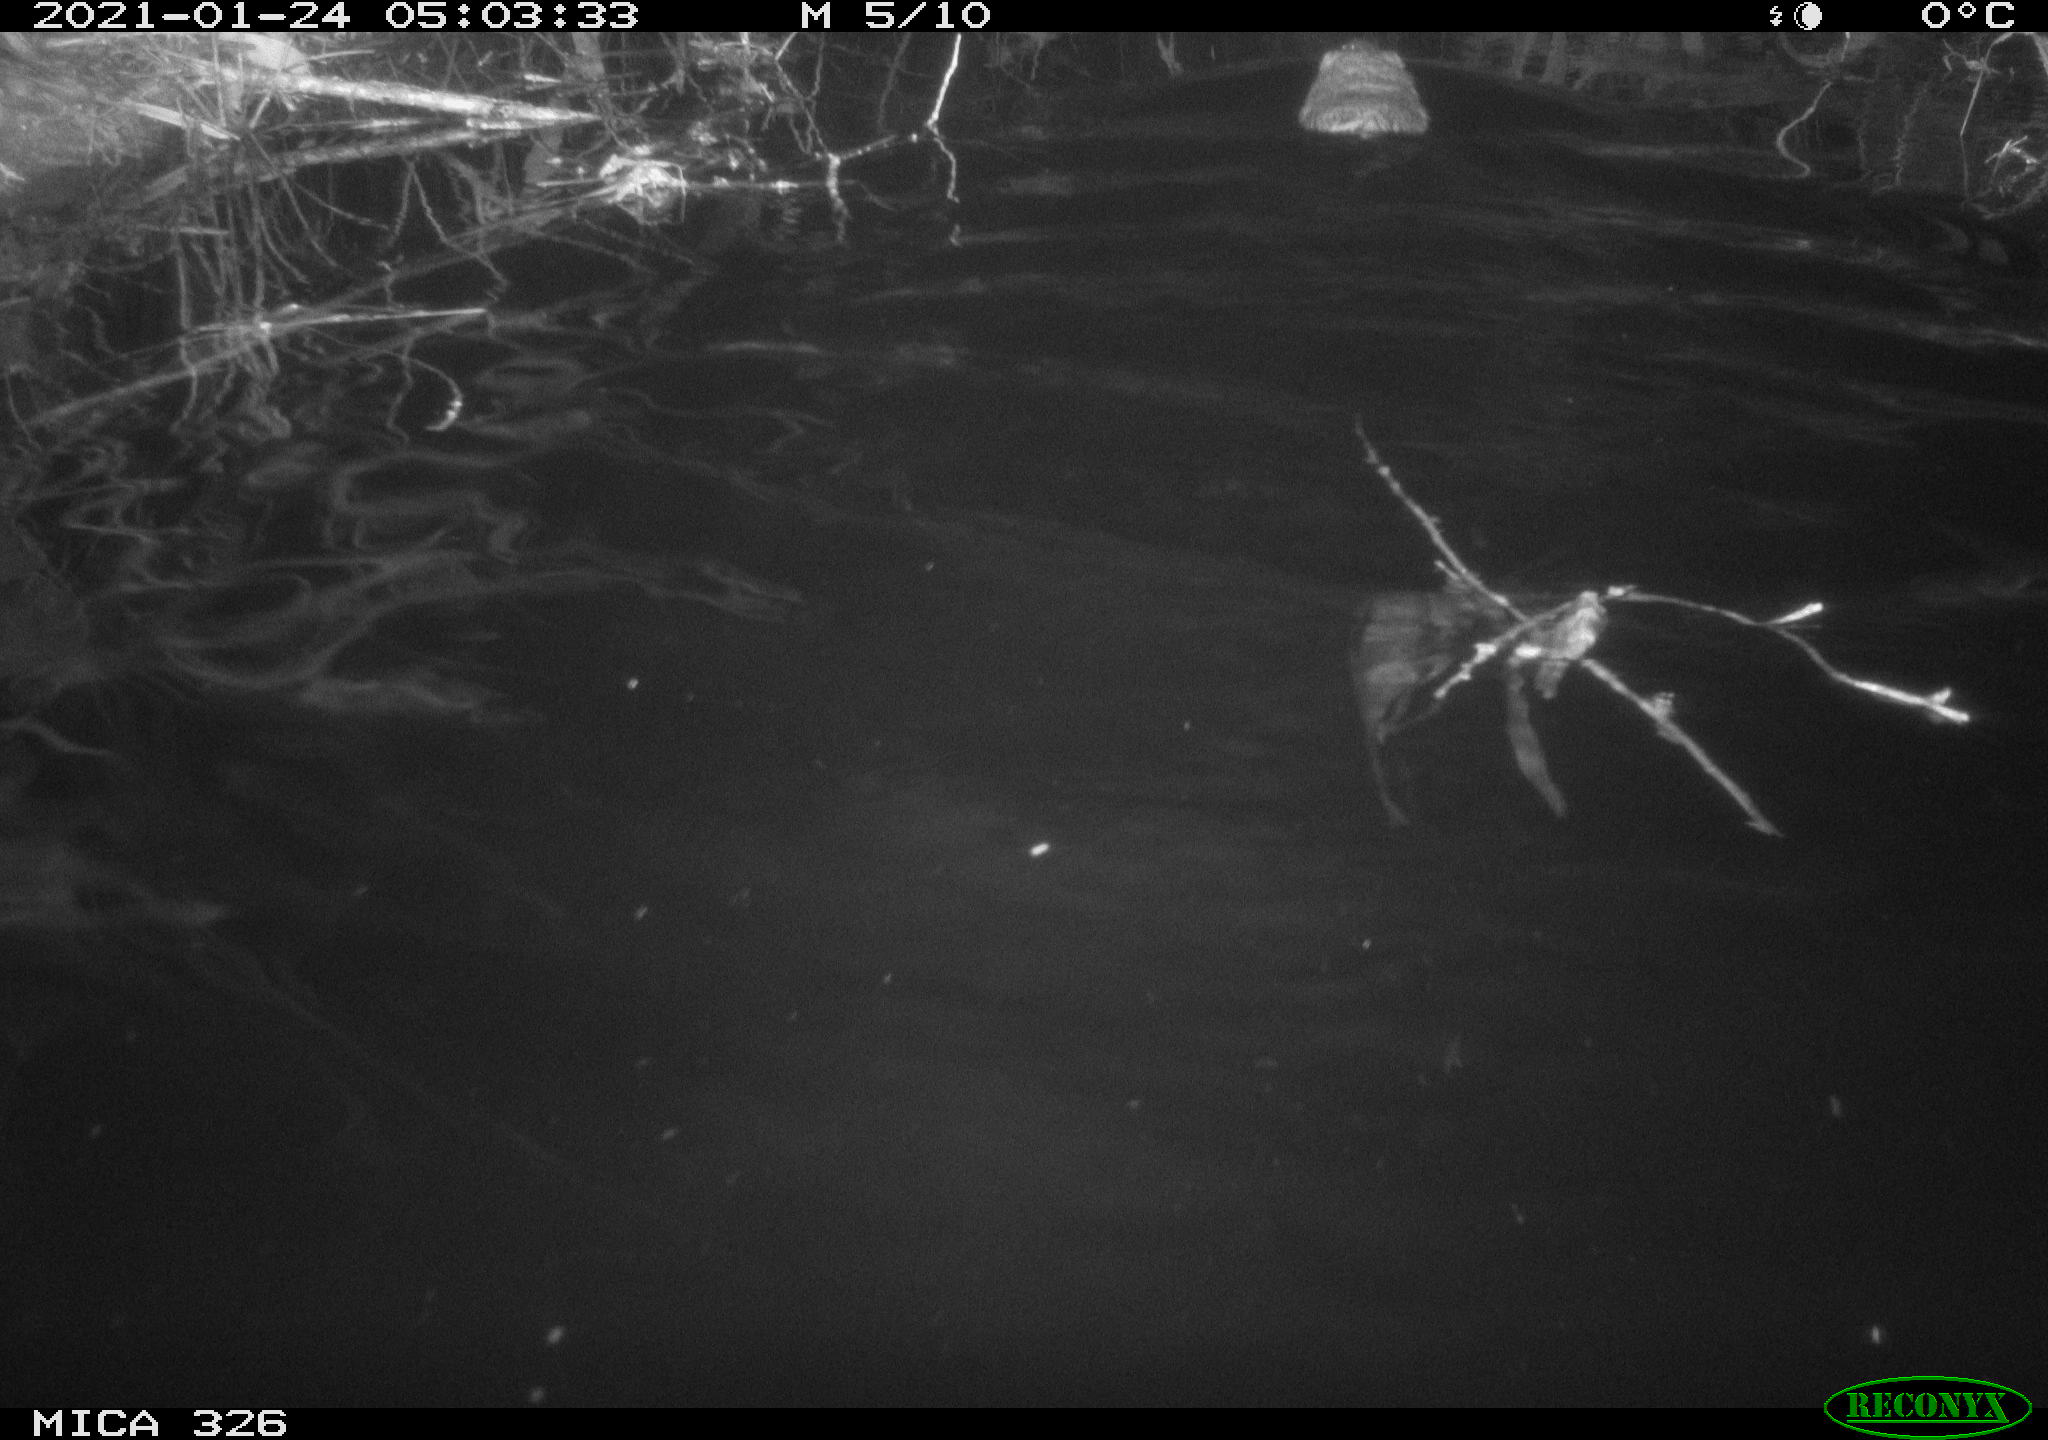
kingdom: Animalia
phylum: Chordata
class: Mammalia
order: Rodentia
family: Cricetidae
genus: Ondatra
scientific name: Ondatra zibethicus
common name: Muskrat
